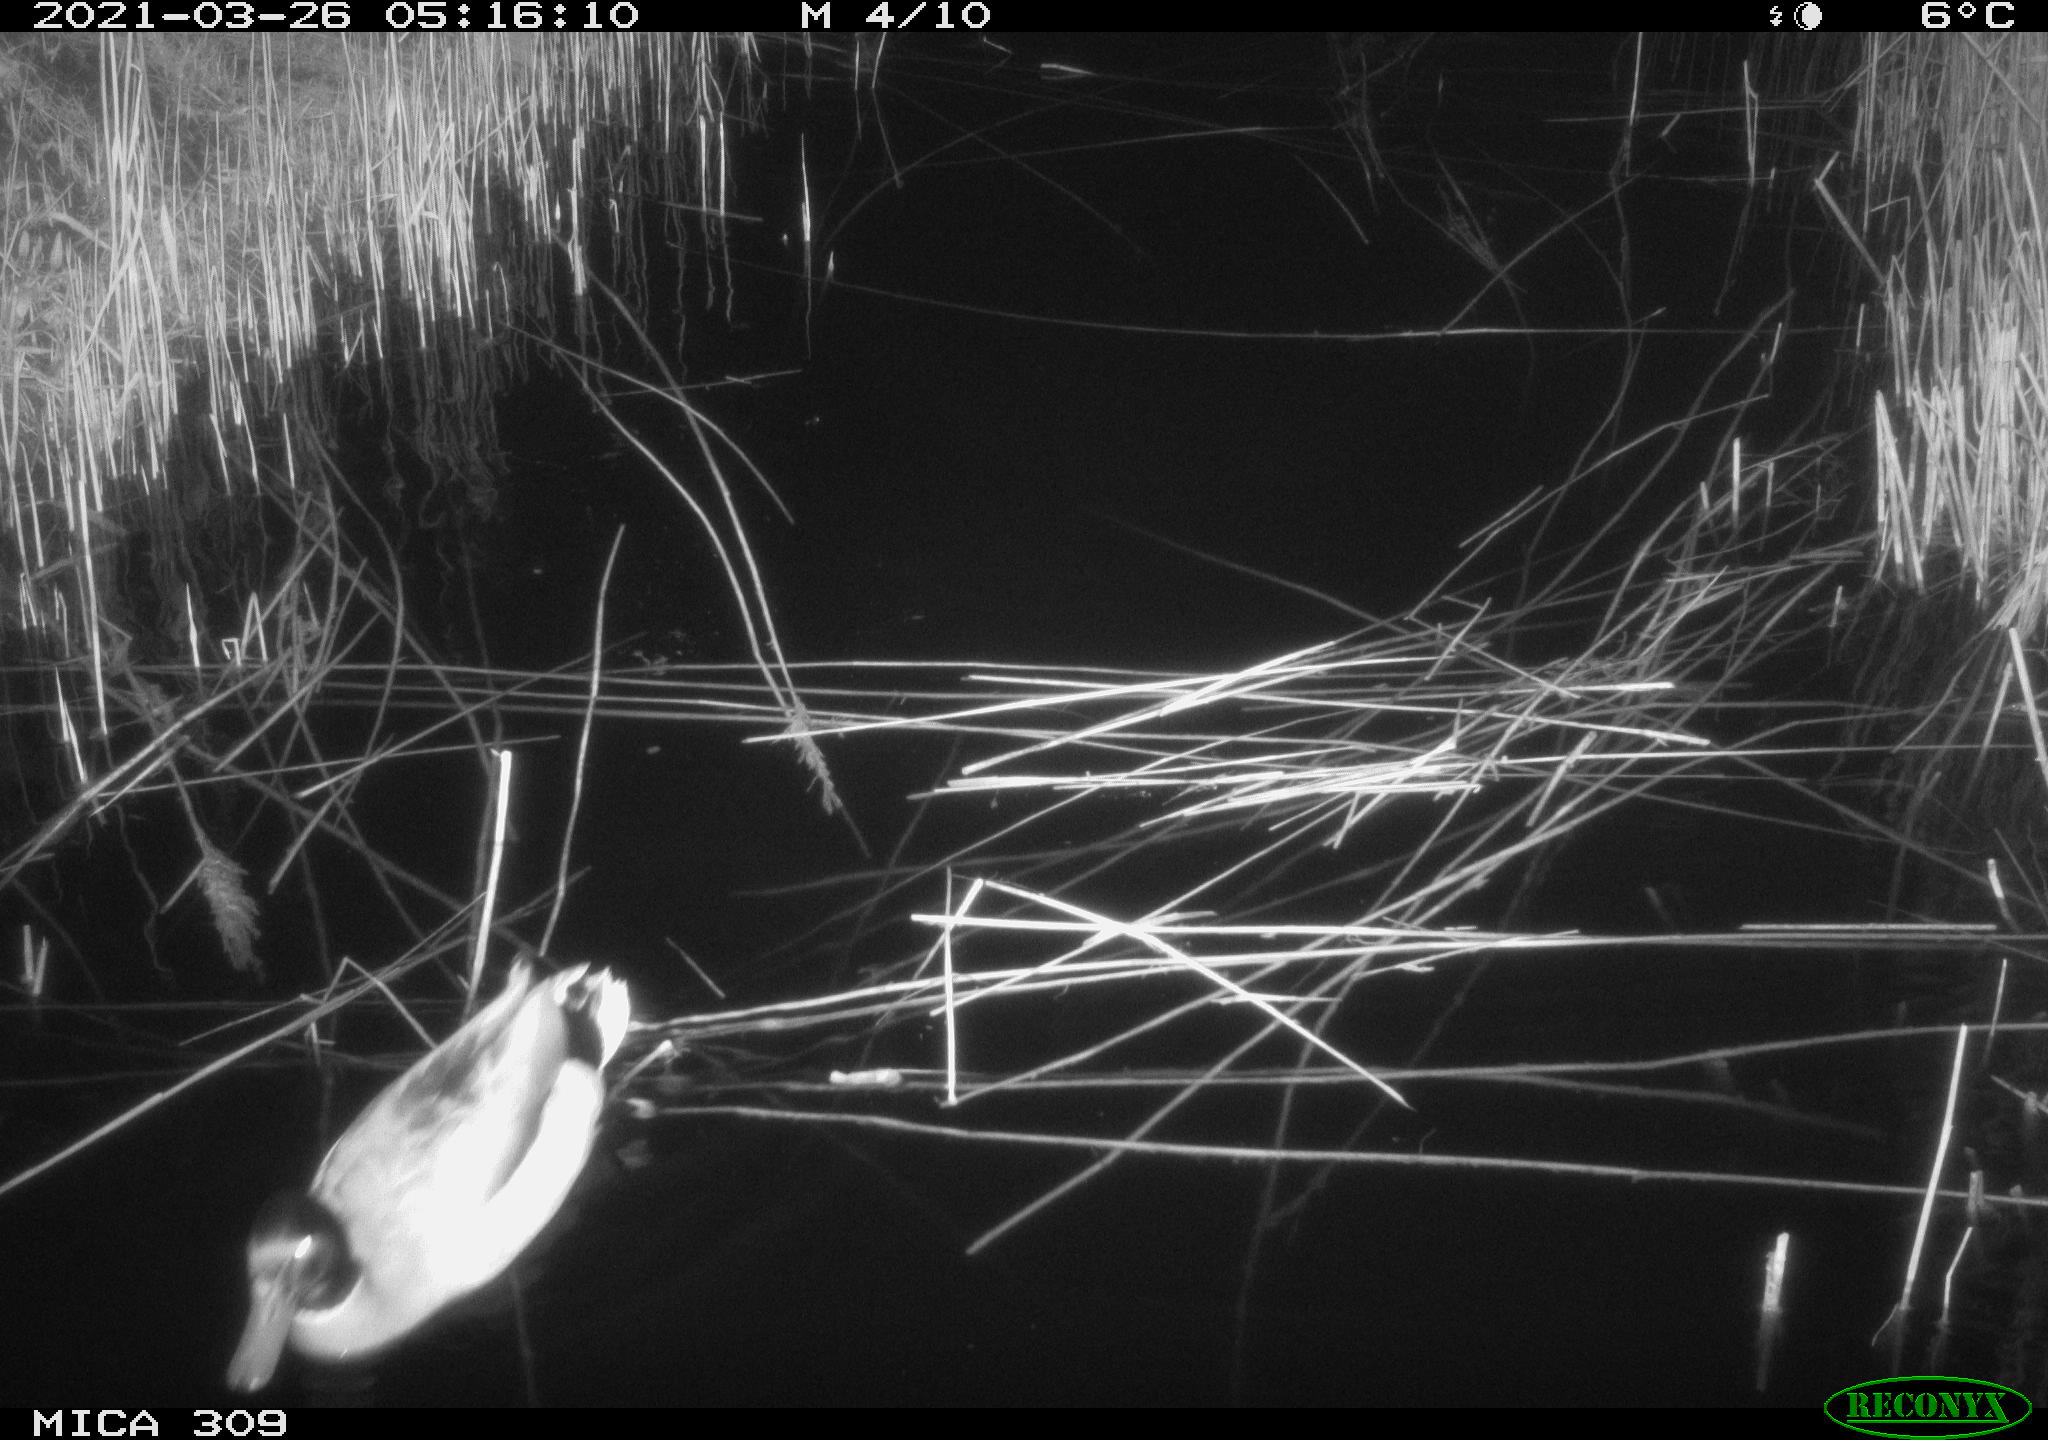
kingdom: Animalia
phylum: Chordata
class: Aves
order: Anseriformes
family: Anatidae
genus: Anas
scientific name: Anas platyrhynchos
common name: Mallard
